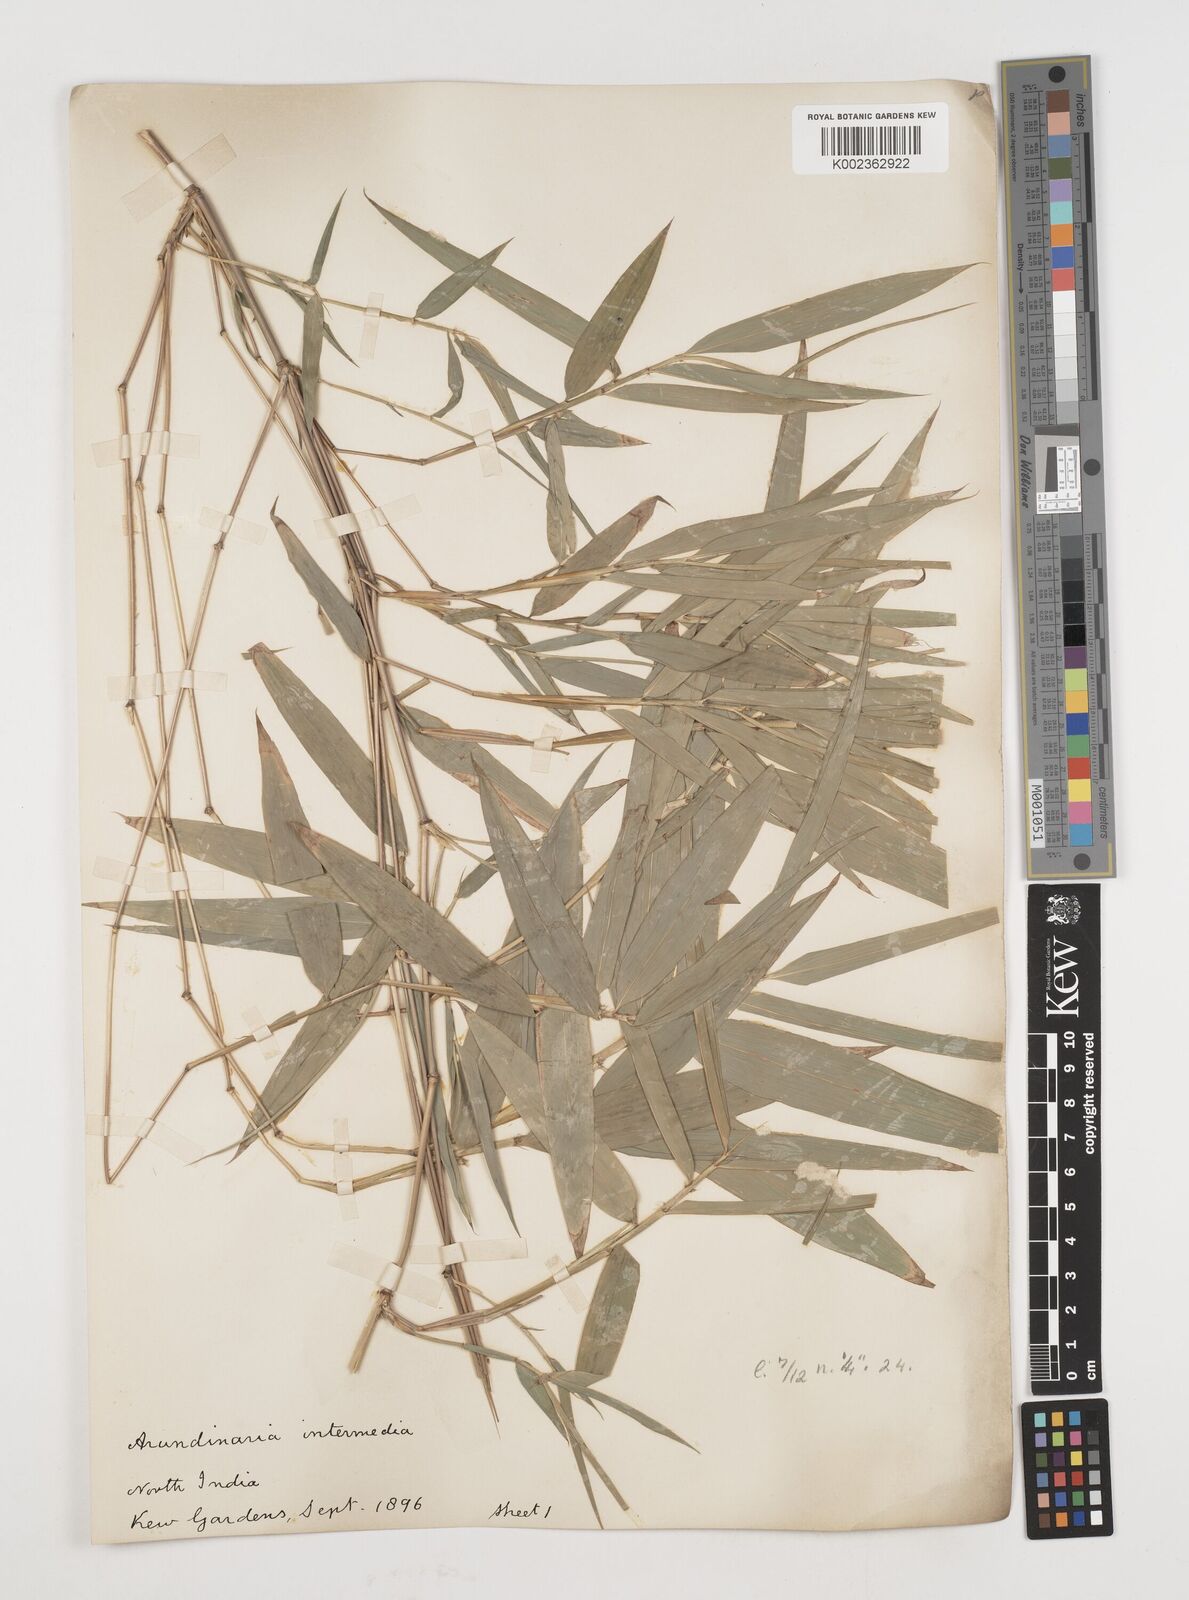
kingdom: Plantae
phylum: Tracheophyta
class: Liliopsida
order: Poales
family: Poaceae
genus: Drepanostachyum
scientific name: Drepanostachyum intermedium
